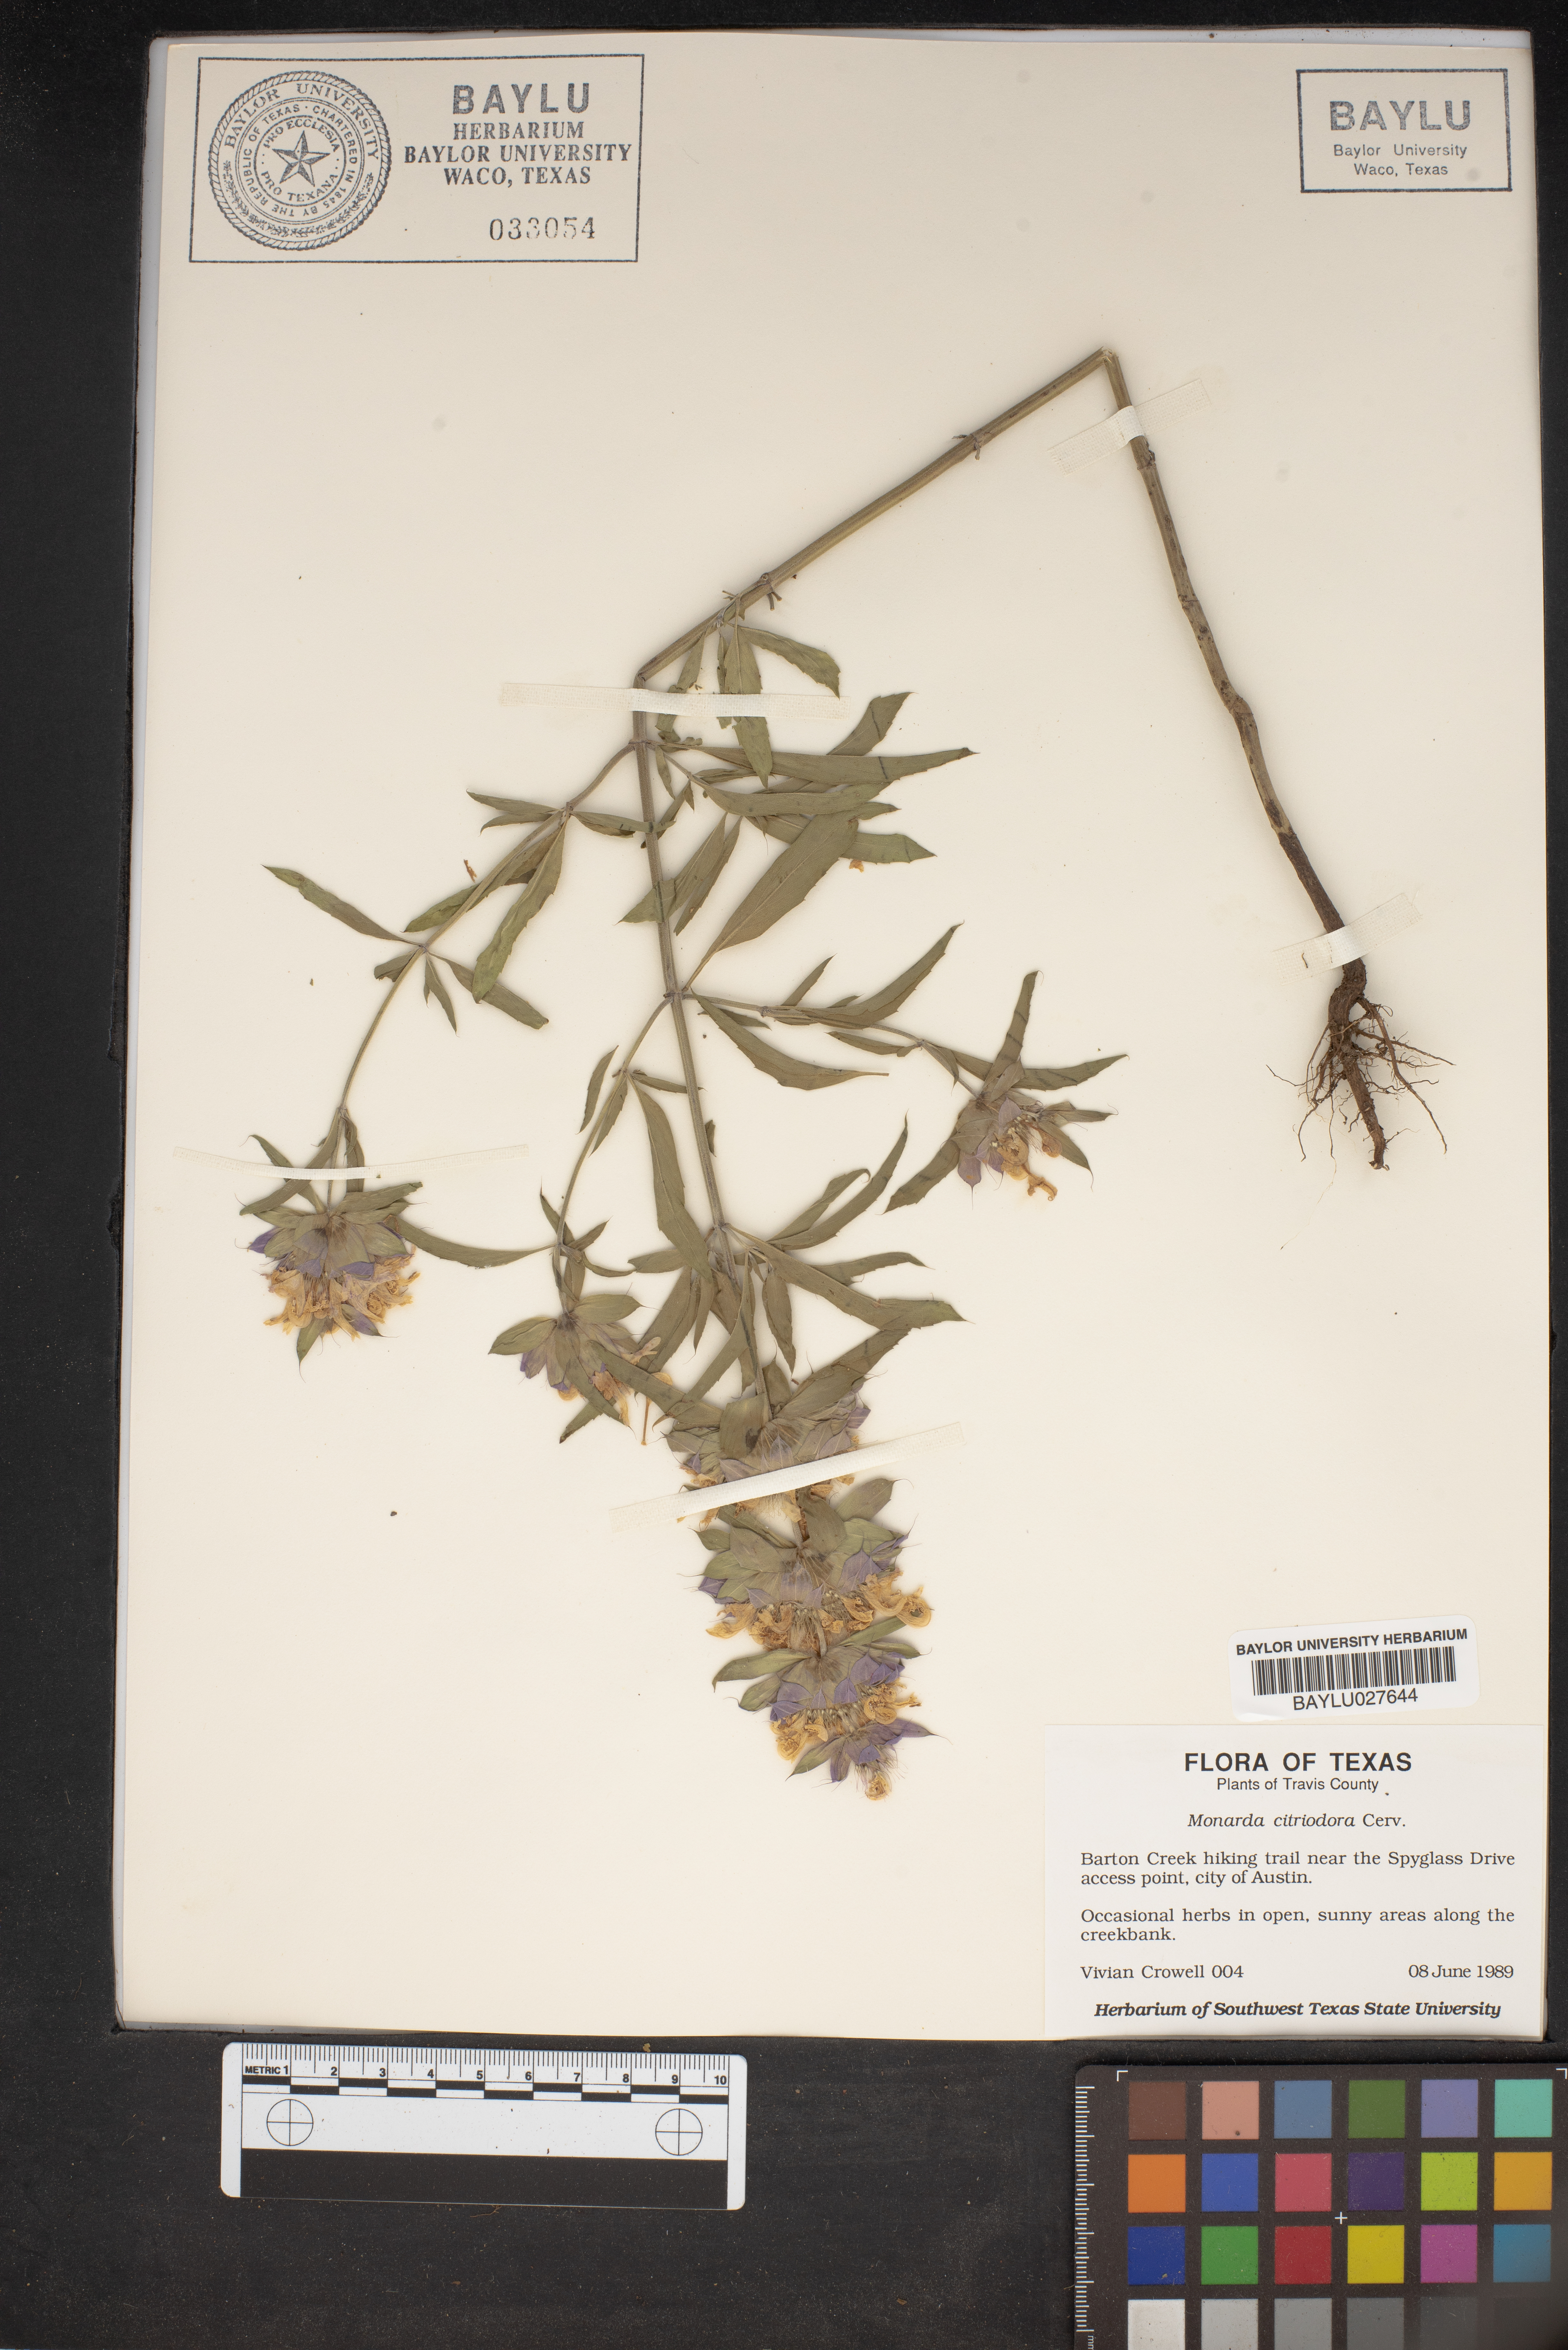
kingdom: Plantae
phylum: Tracheophyta
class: Magnoliopsida
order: Lamiales
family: Lamiaceae
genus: Monarda
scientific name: Monarda citriodora
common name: Lemon beebalm
